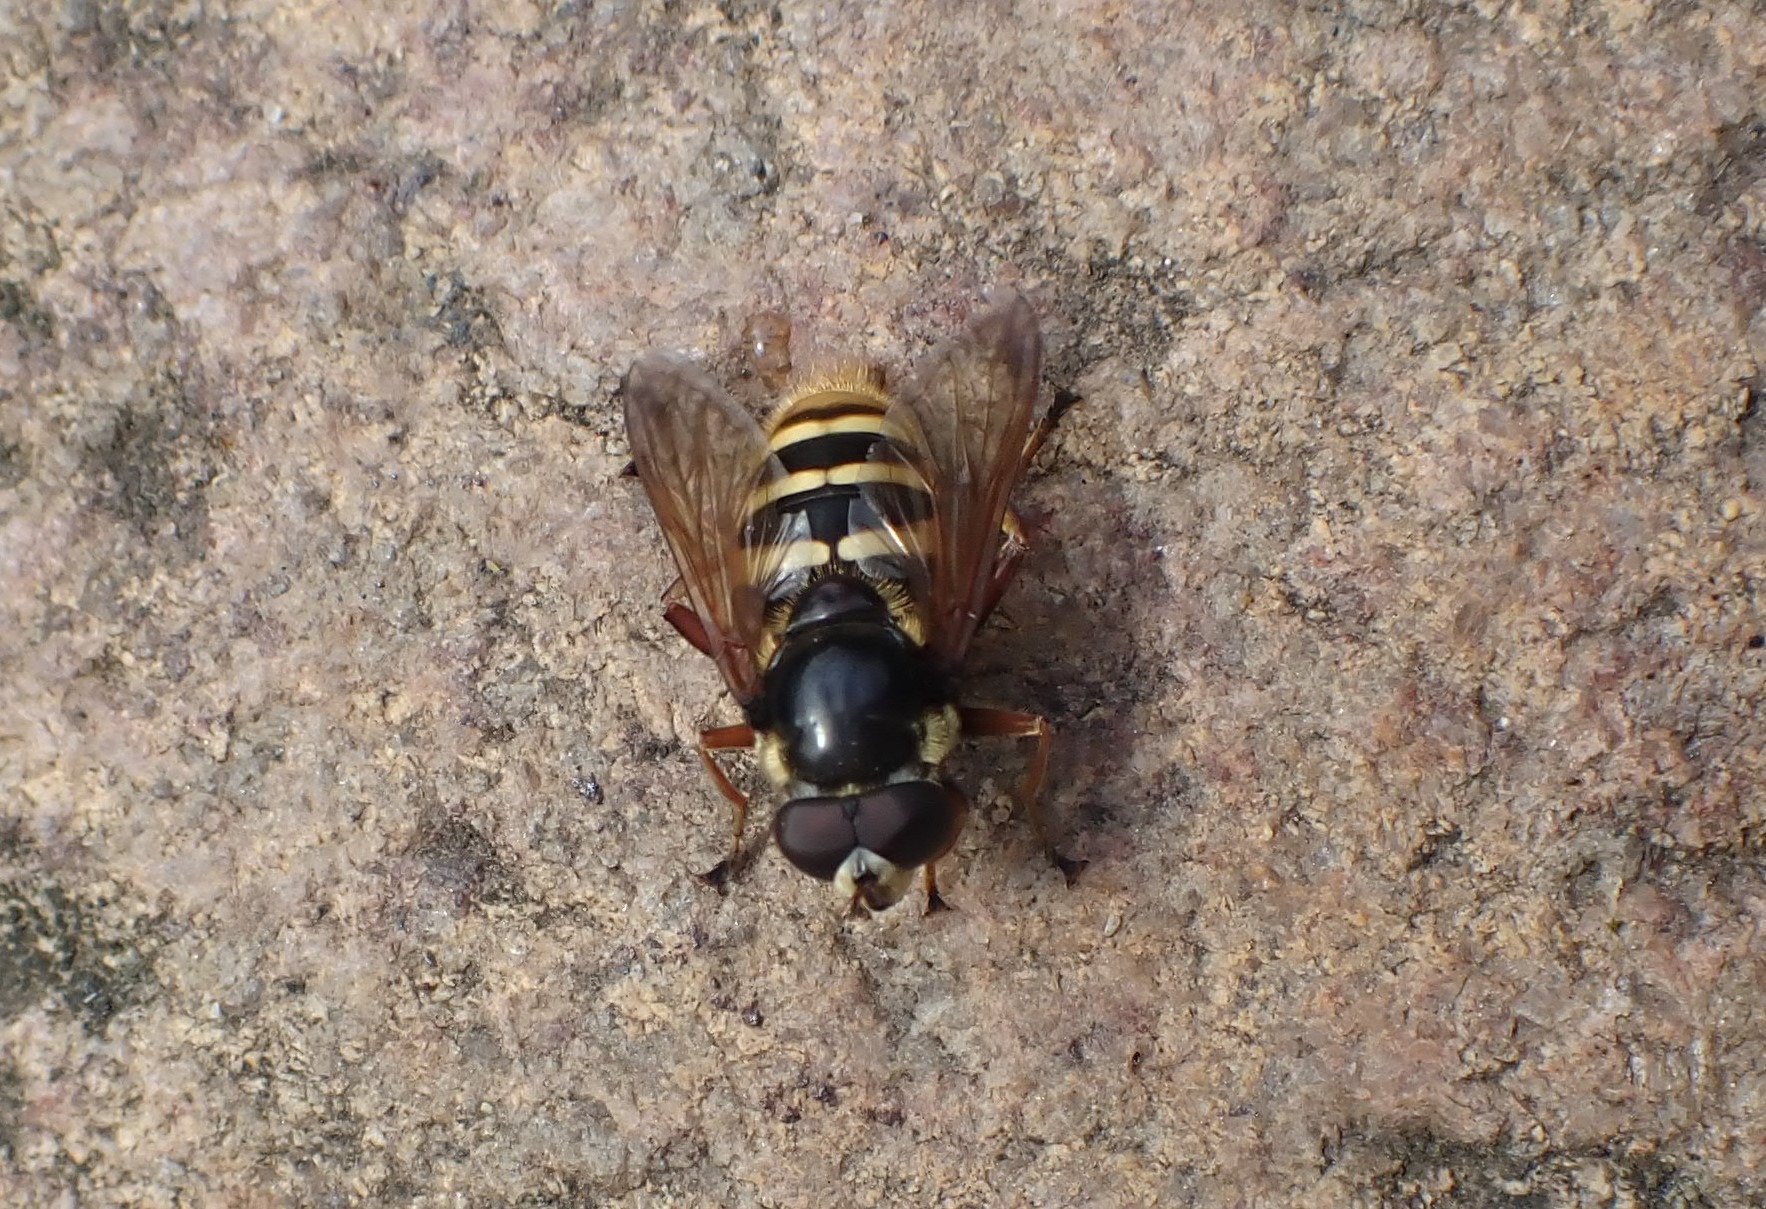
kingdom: Animalia
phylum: Arthropoda
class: Insecta
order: Diptera
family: Syrphidae
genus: Sericomyia
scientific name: Sericomyia silentis
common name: Tørve-silkesvirreflue
